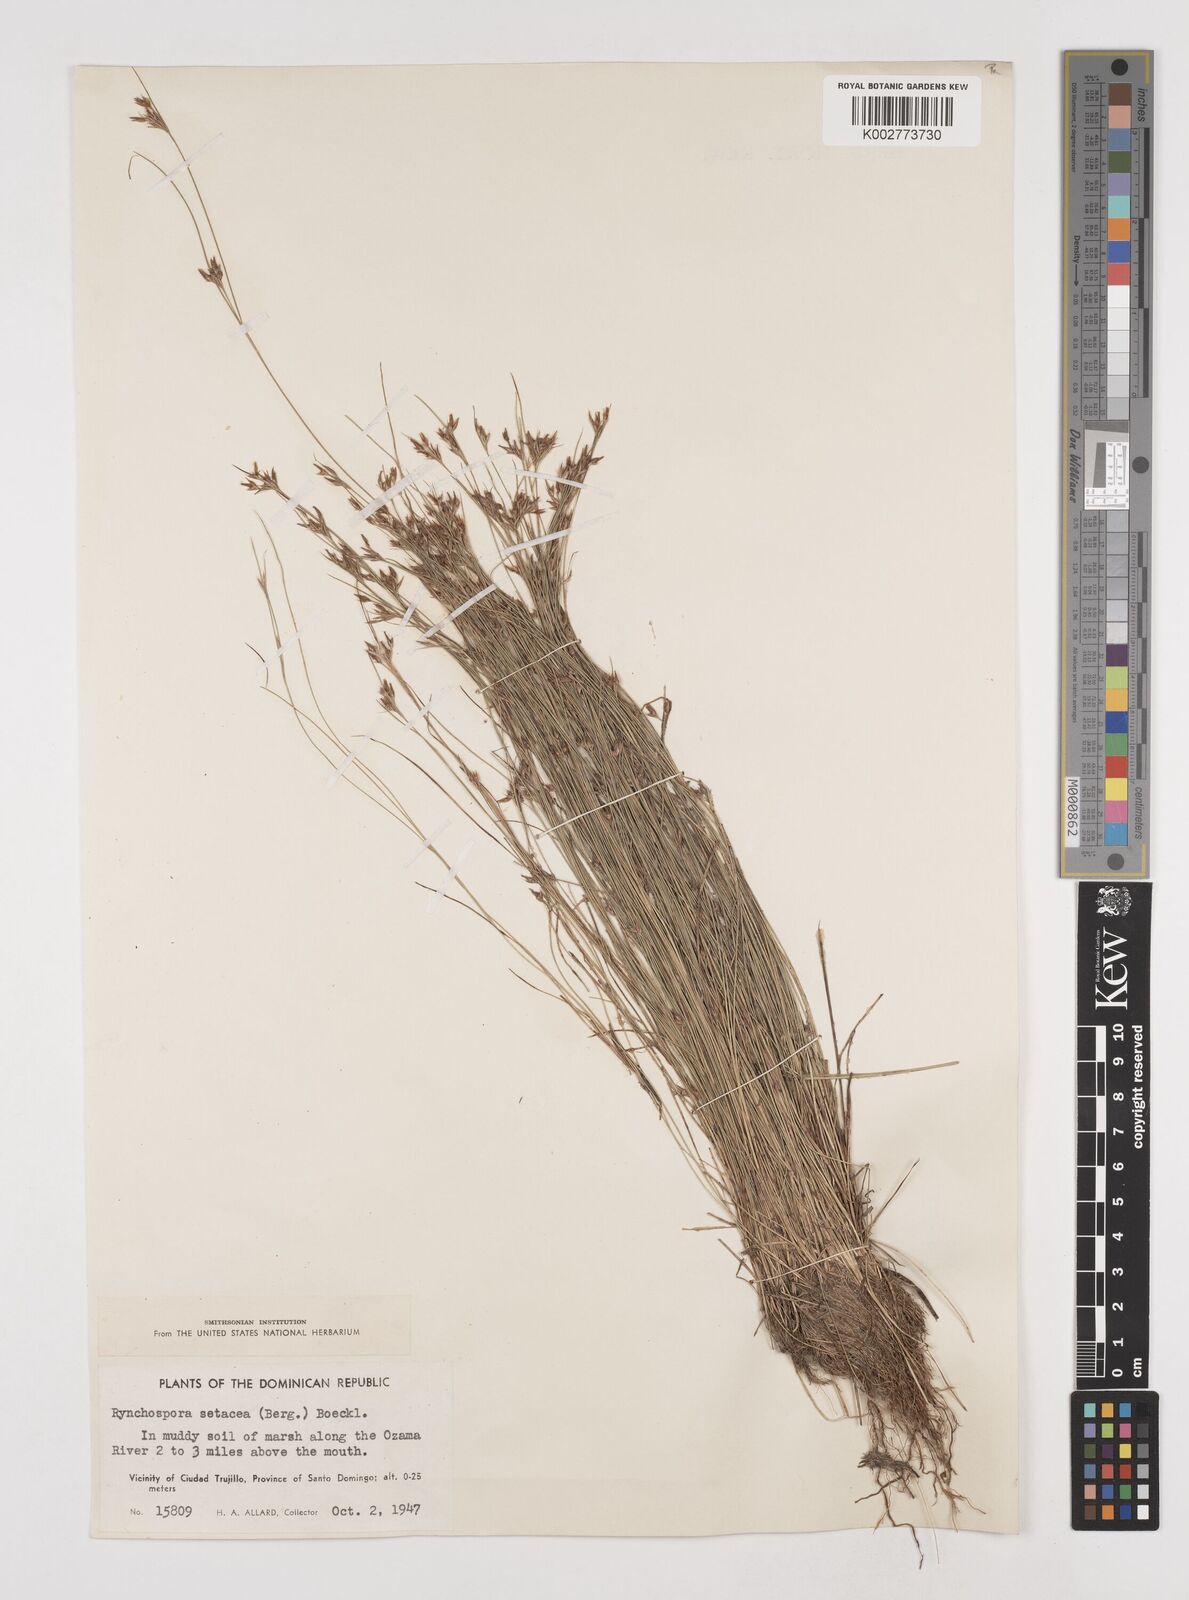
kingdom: Plantae
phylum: Tracheophyta
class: Liliopsida
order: Poales
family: Cyperaceae
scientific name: Cyperaceae
